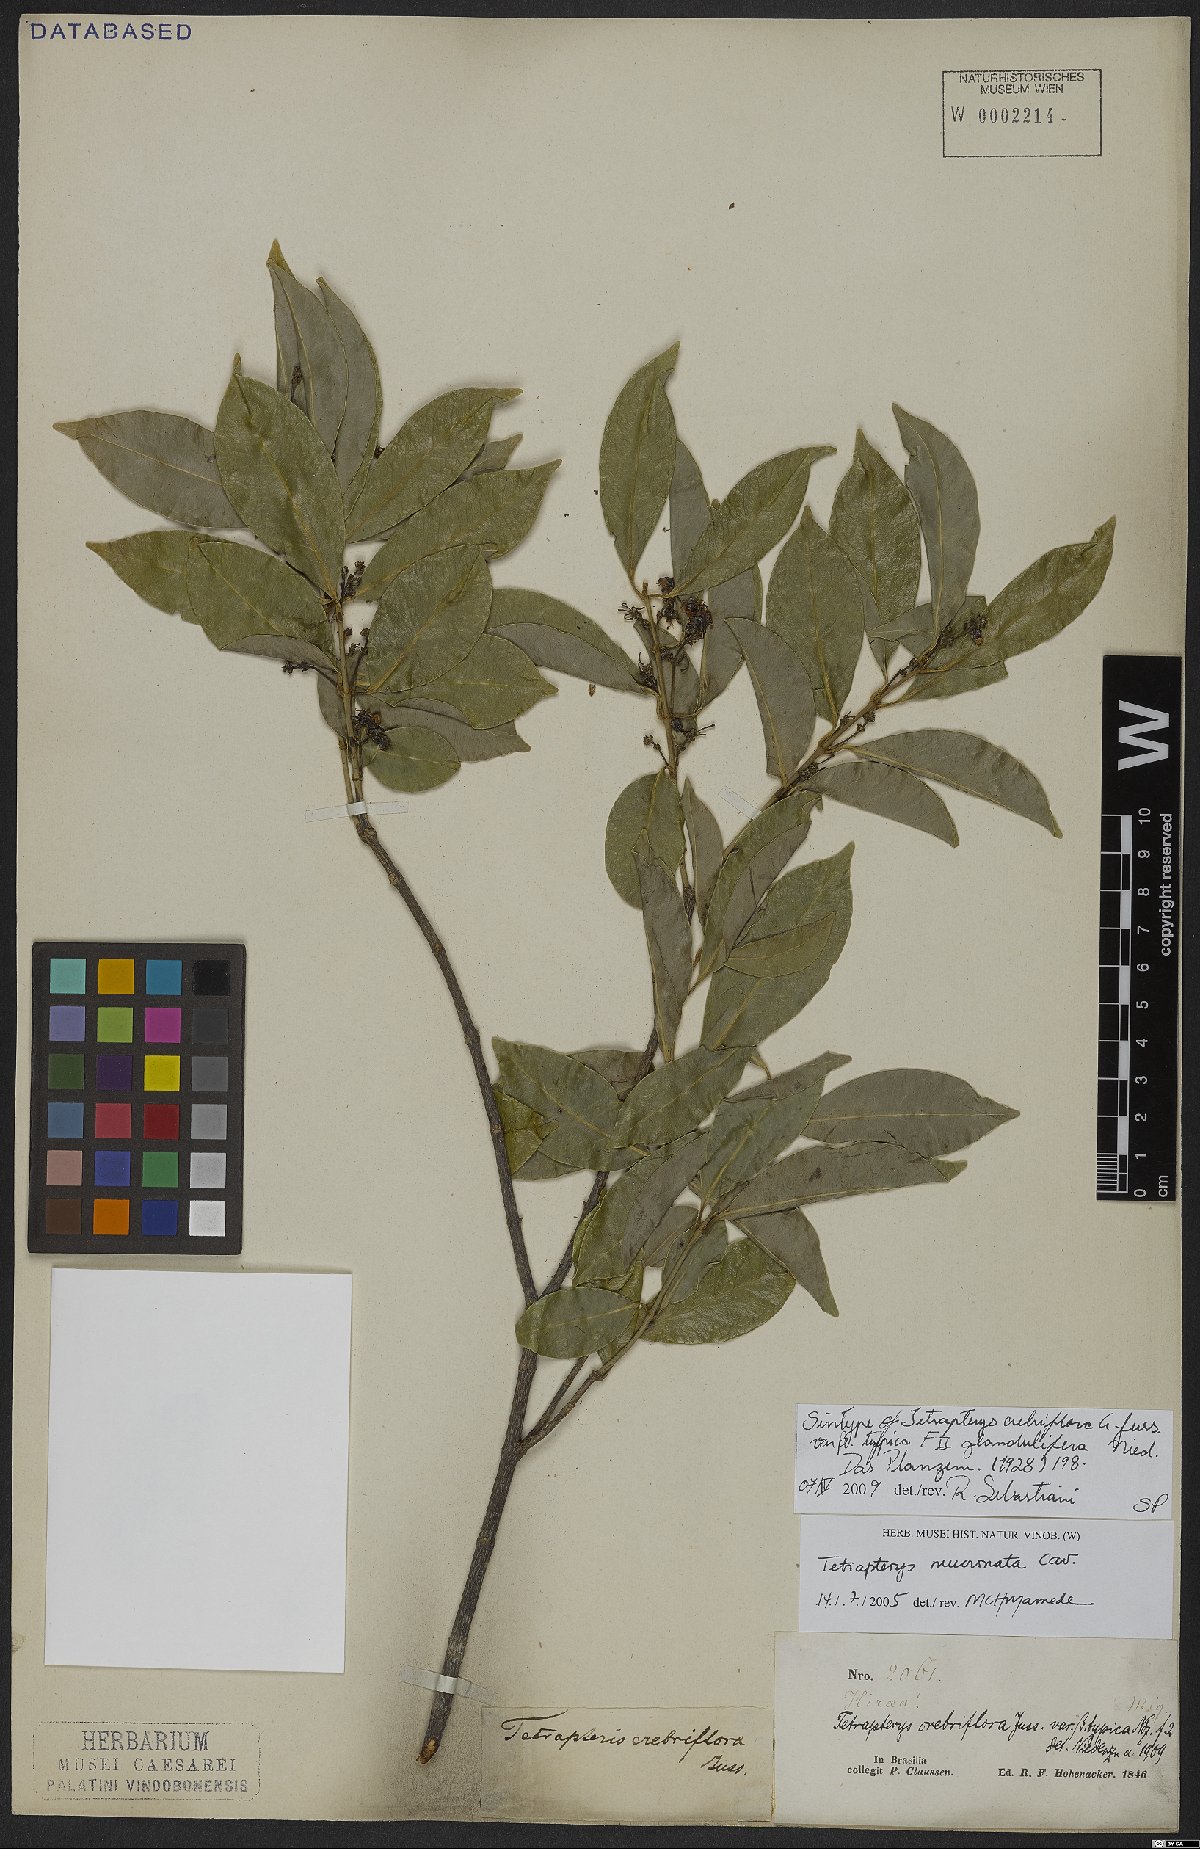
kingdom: Plantae
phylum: Tracheophyta
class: Magnoliopsida
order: Malpighiales
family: Malpighiaceae
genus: Tetrapterys
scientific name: Tetrapterys mucronata
